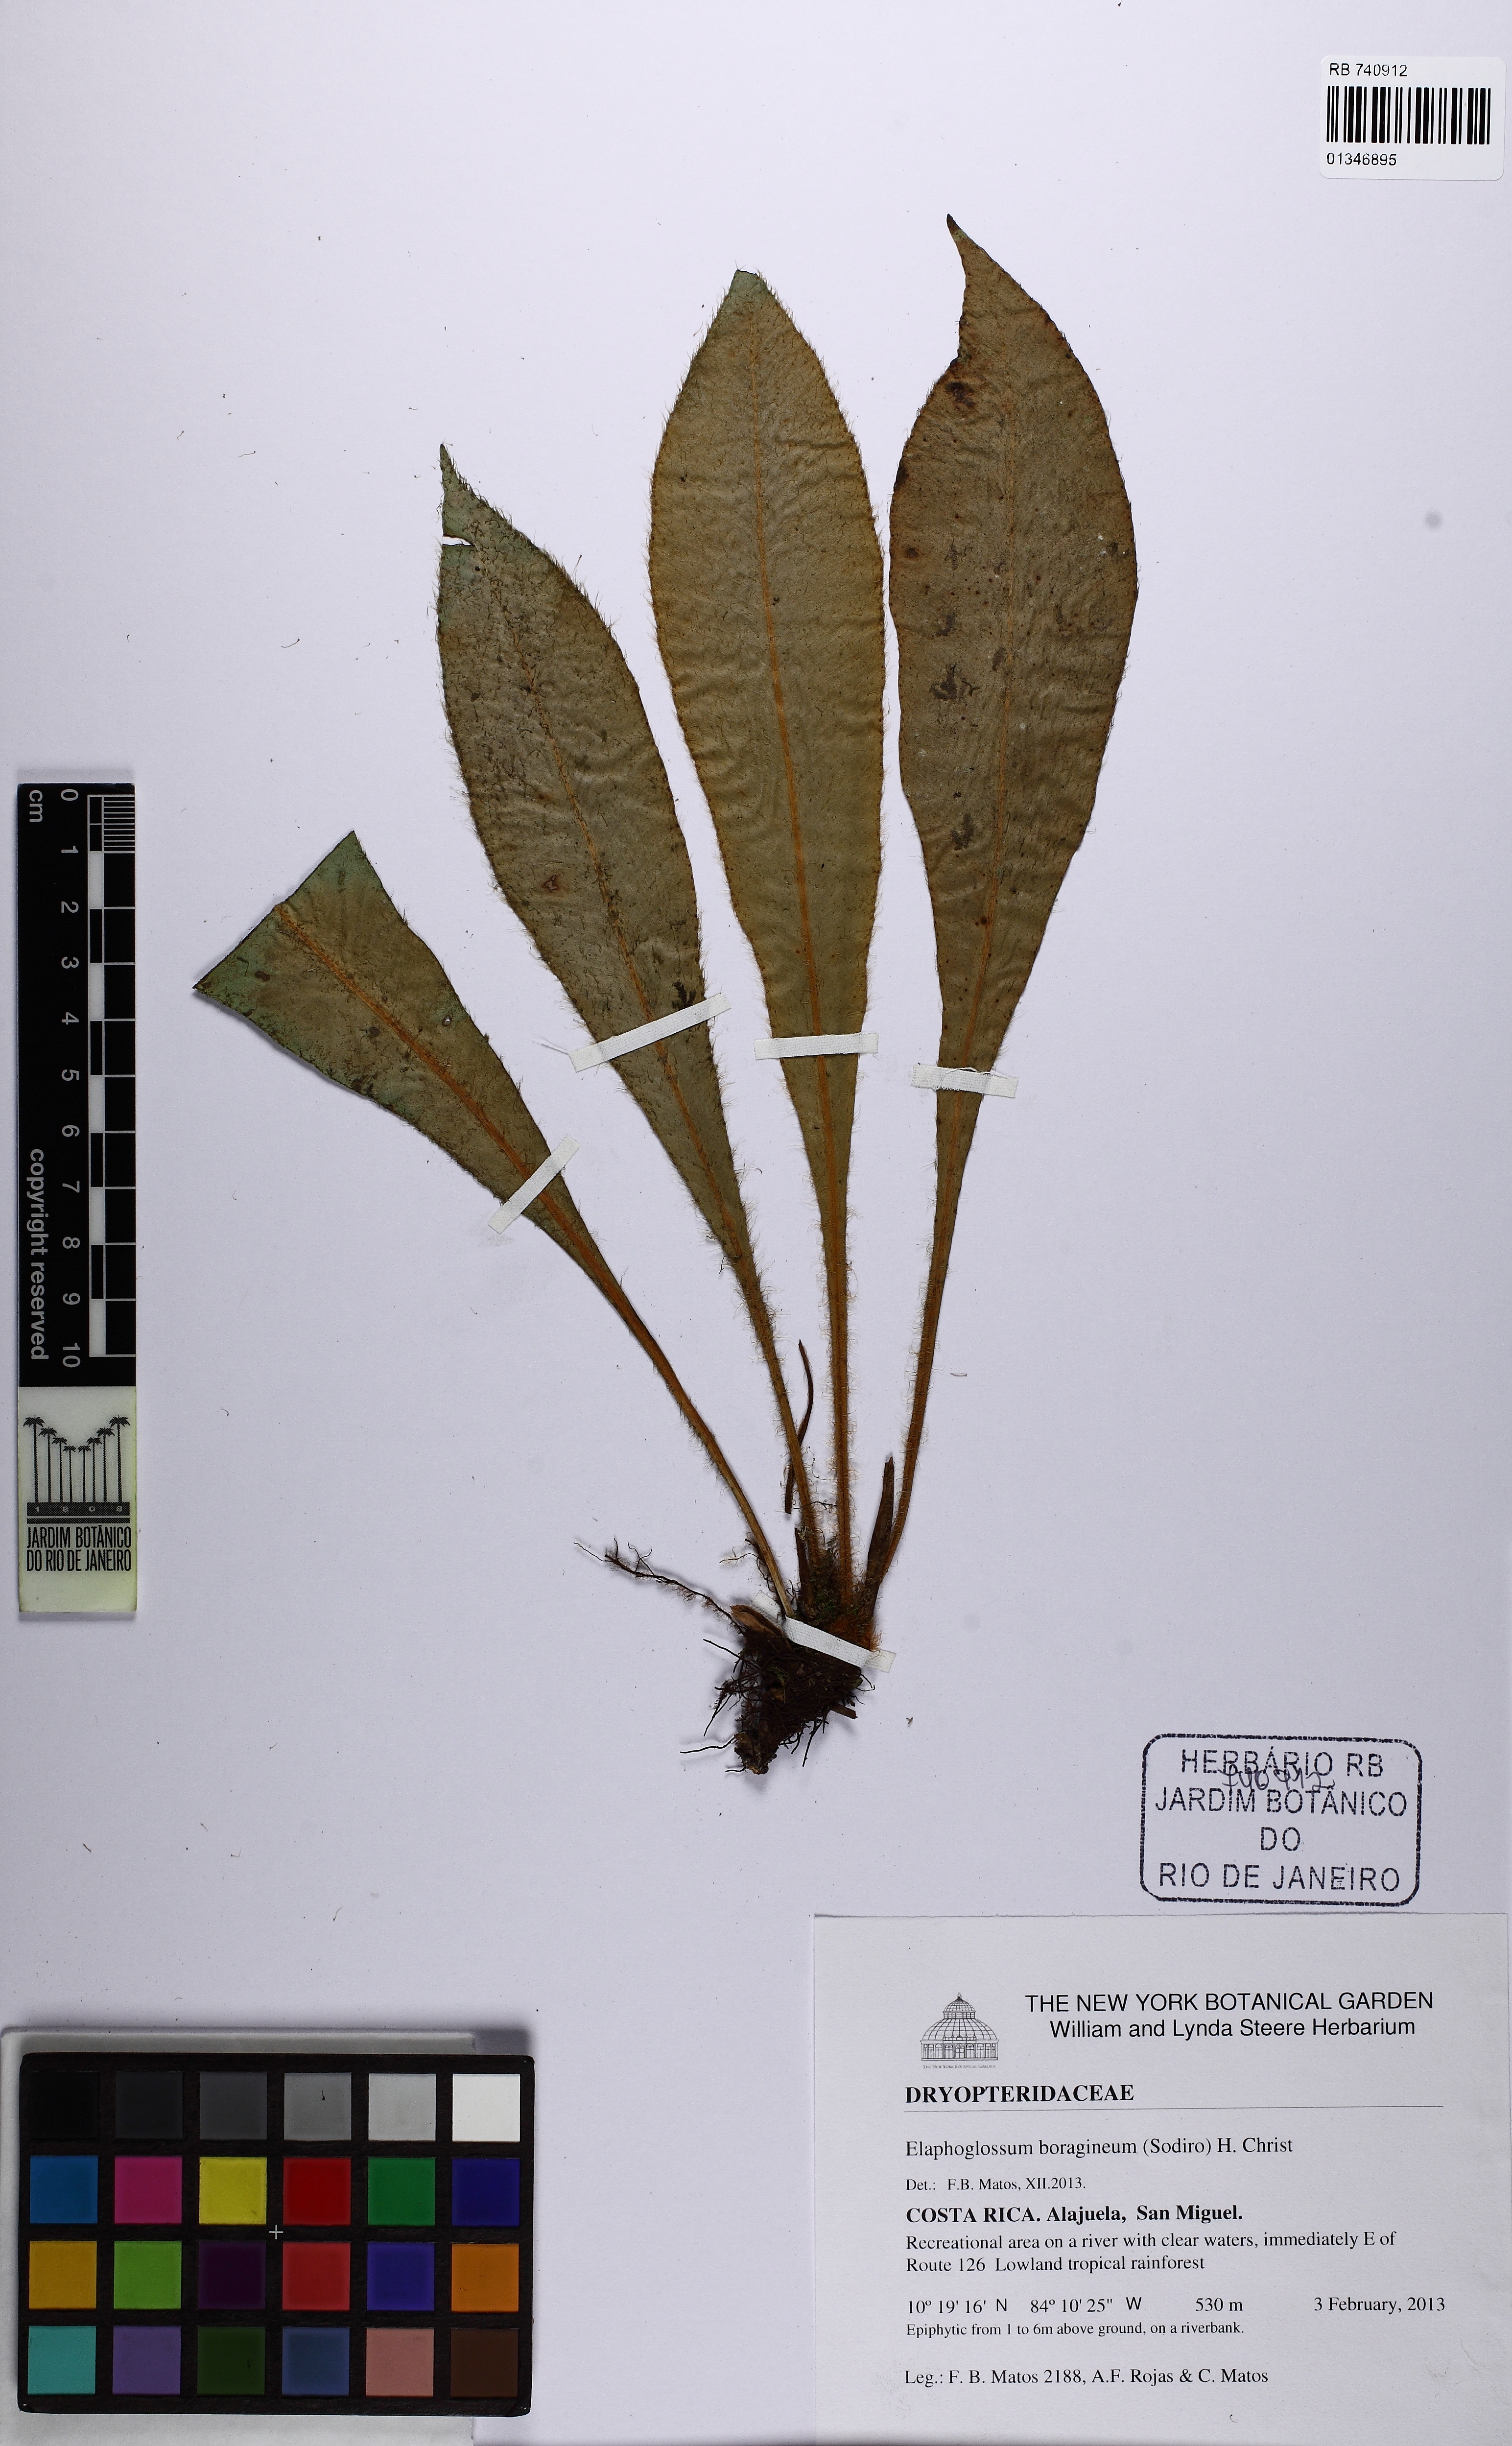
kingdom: Plantae
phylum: Tracheophyta
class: Polypodiopsida
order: Polypodiales
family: Dryopteridaceae
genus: Elaphoglossum
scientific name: Elaphoglossum boragineum
